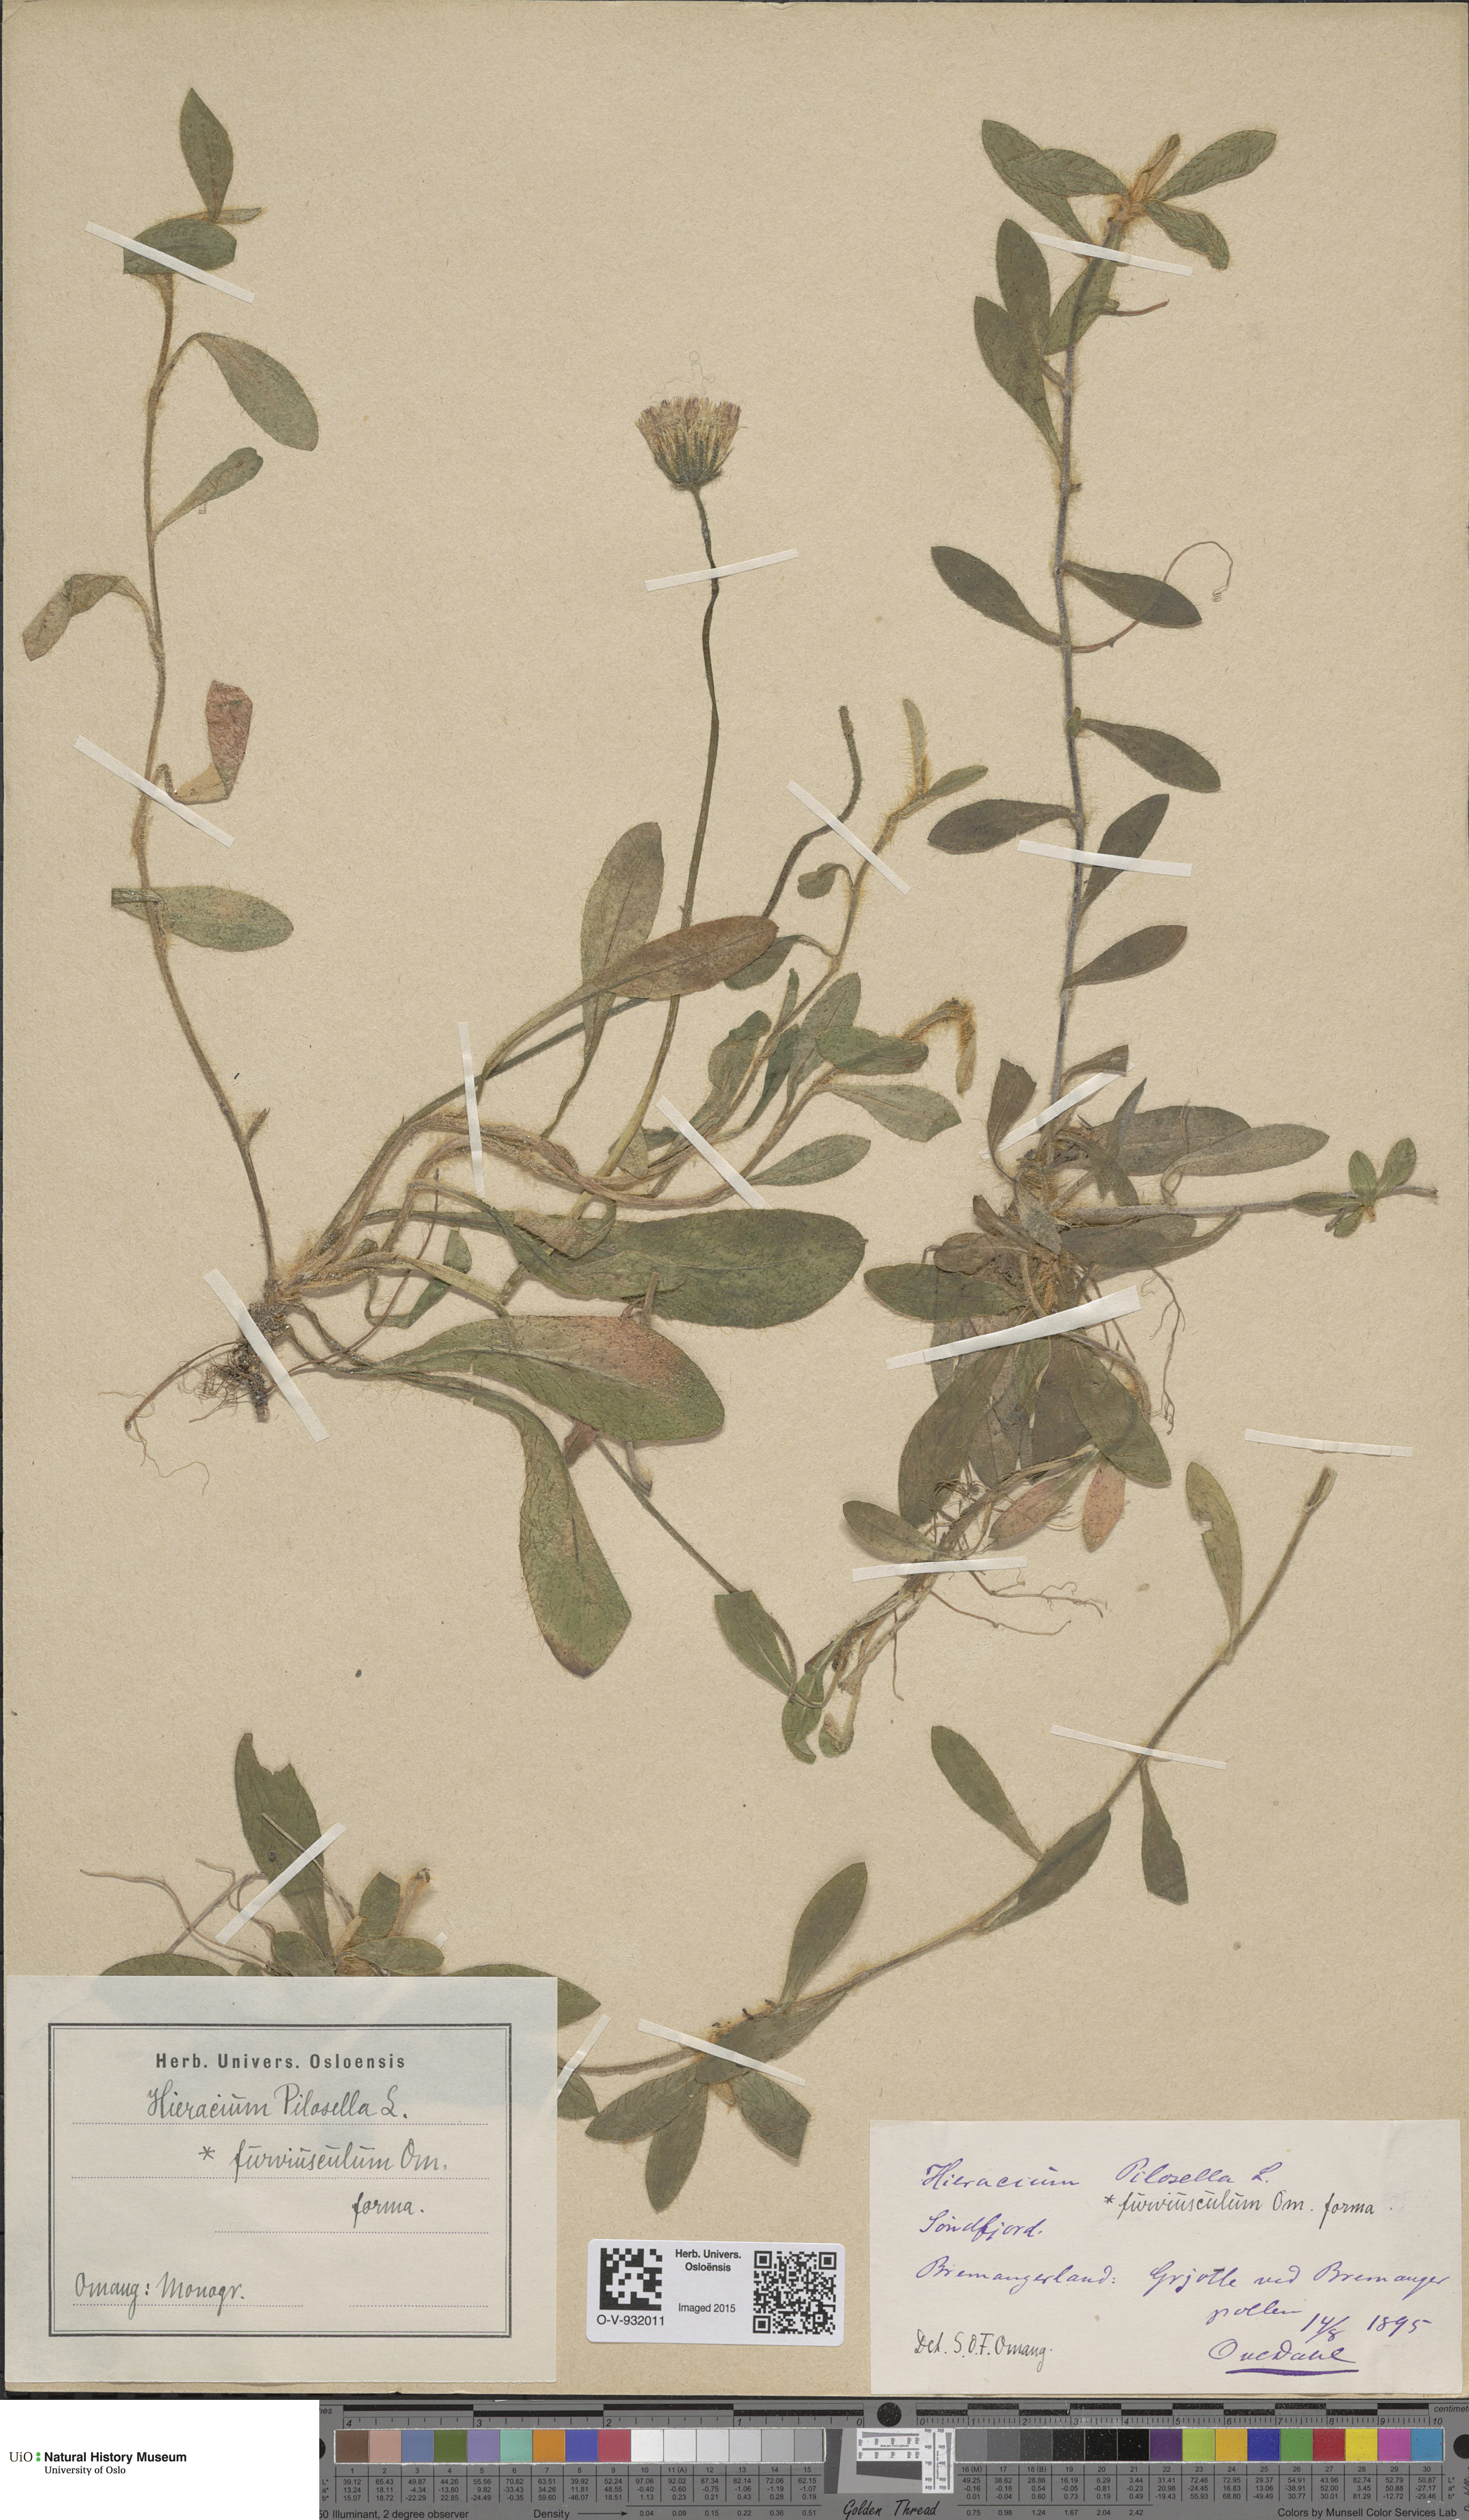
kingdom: Plantae
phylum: Tracheophyta
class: Magnoliopsida
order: Asterales
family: Asteraceae
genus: Pilosella
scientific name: Pilosella officinarum
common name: Mouse-ear hawkweed
